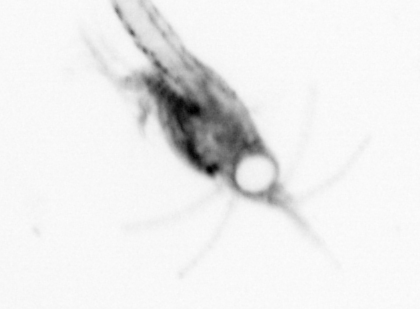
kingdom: Animalia
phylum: Arthropoda
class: Malacostraca
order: Decapoda
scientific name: Decapoda
